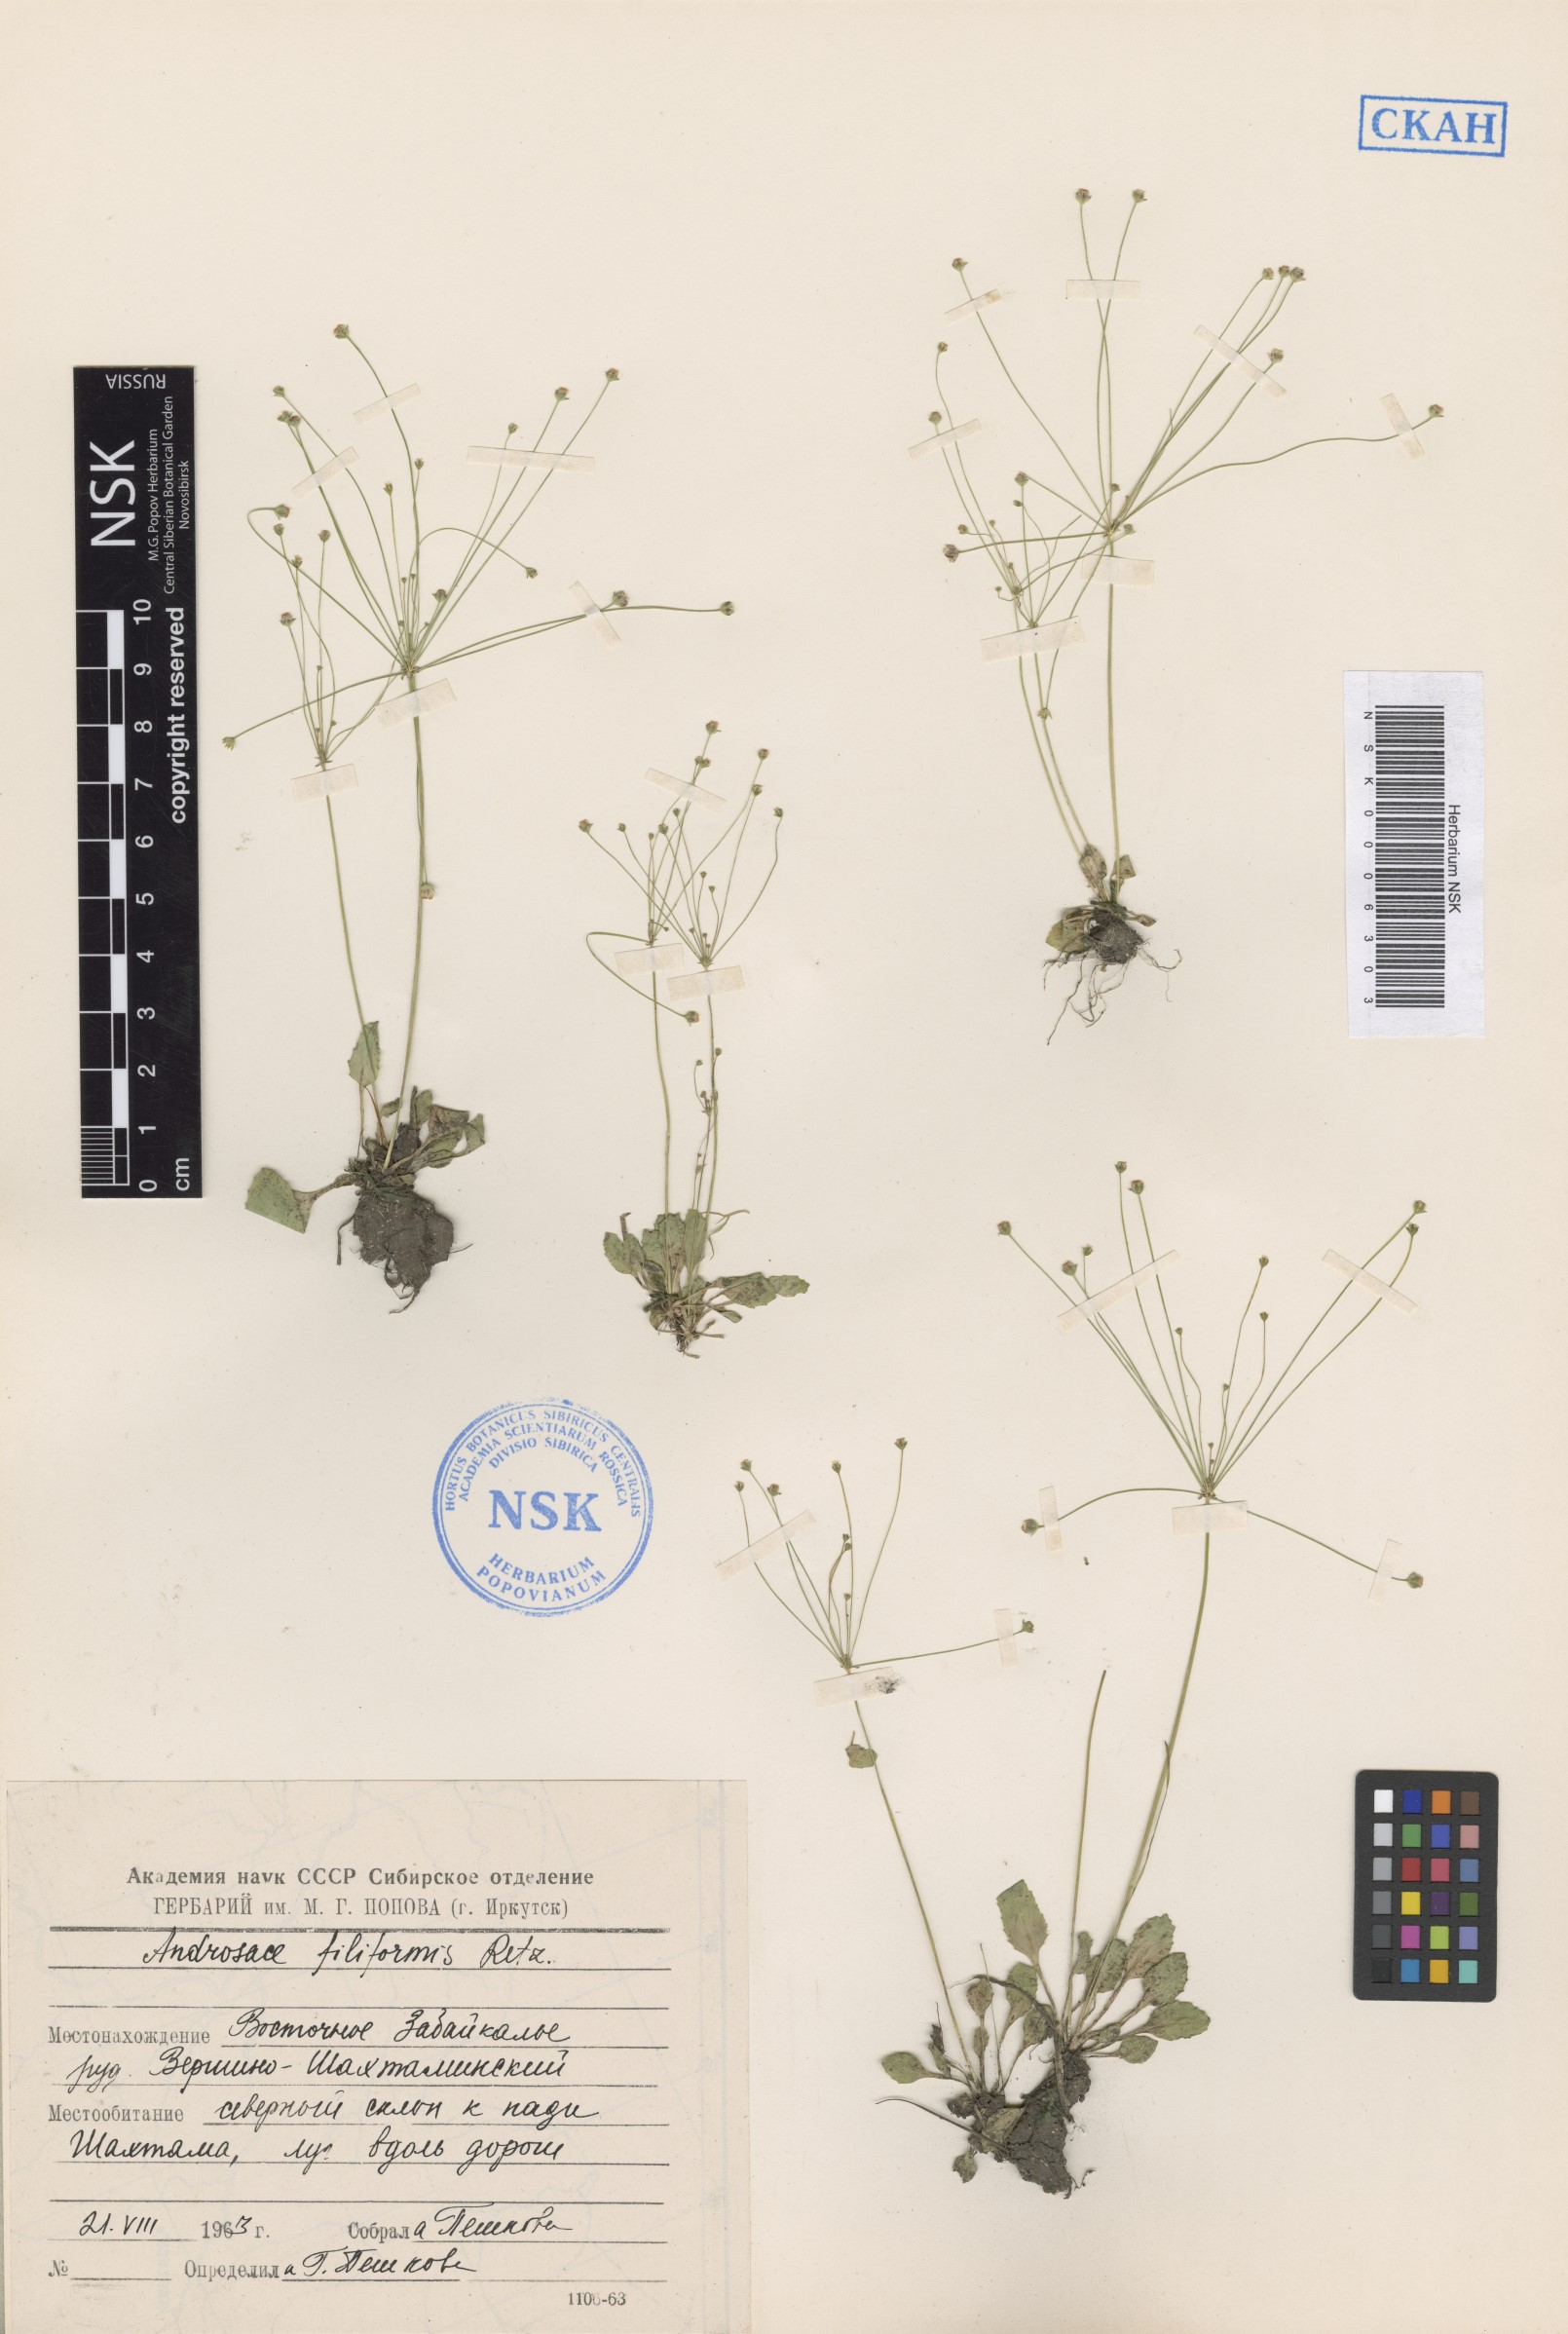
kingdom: Plantae
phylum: Tracheophyta
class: Magnoliopsida
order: Ericales
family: Primulaceae
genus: Androsace
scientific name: Androsace filiformis
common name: Filiform rock jasmine
